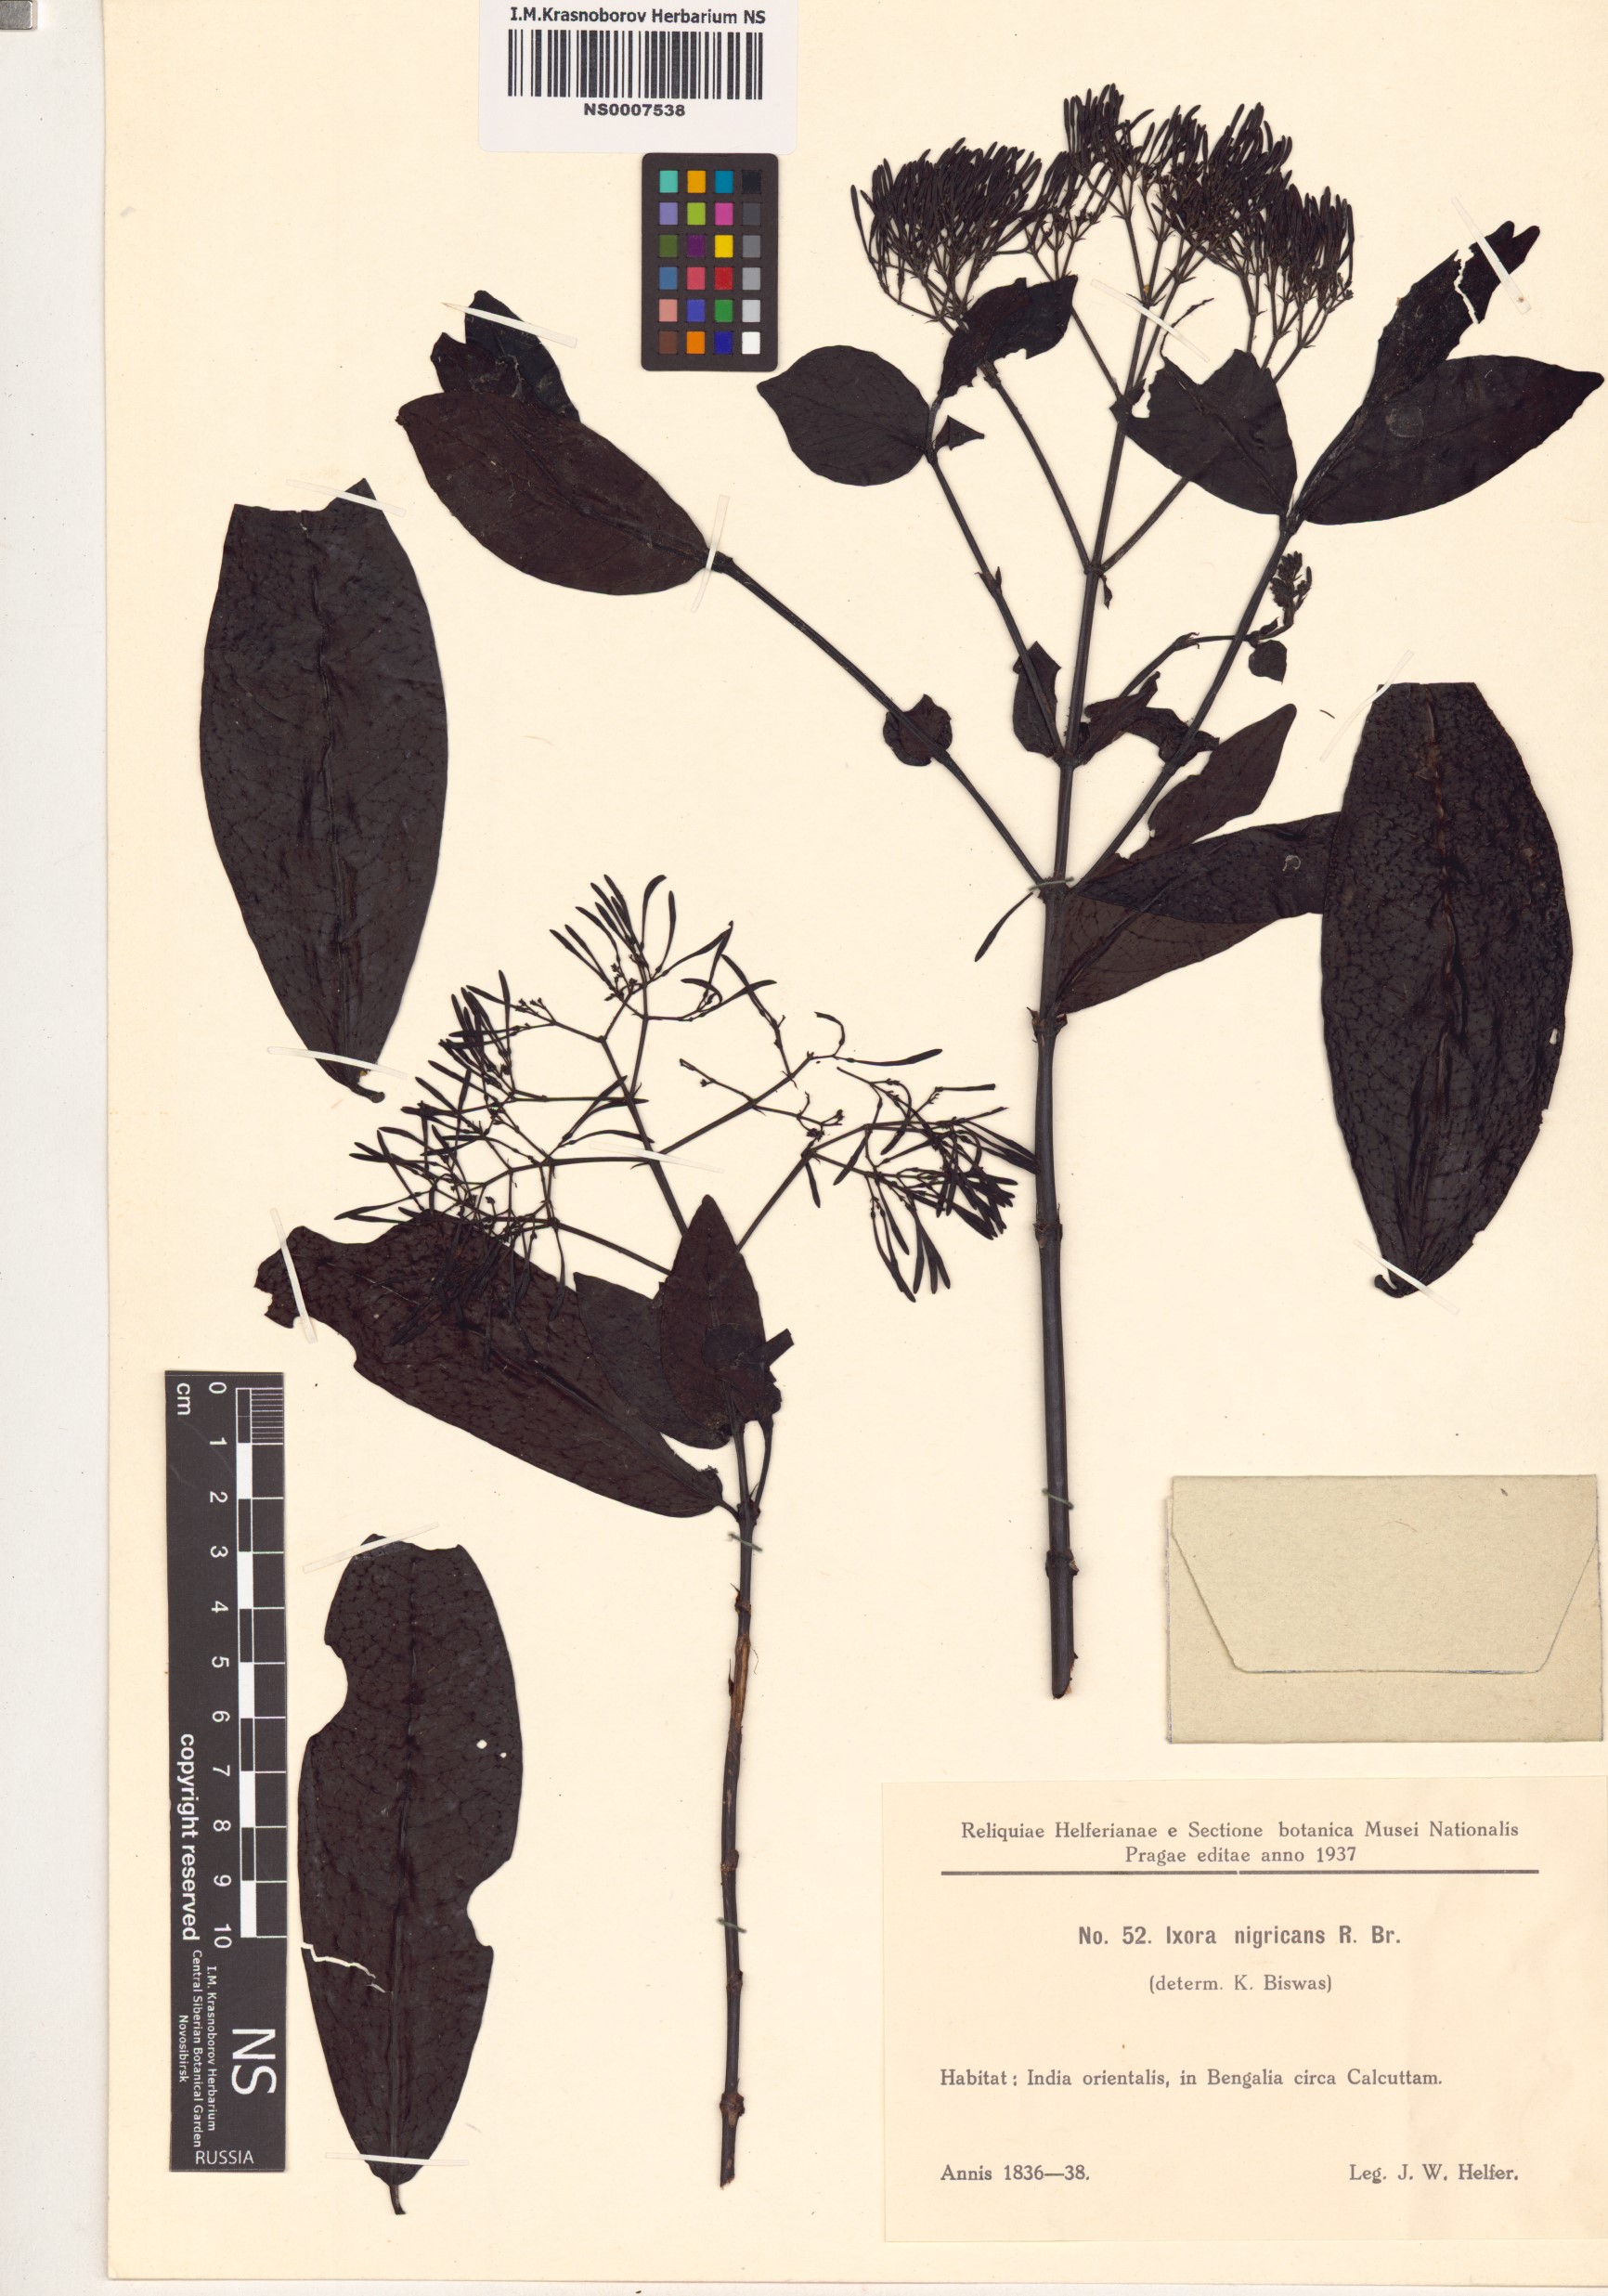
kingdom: Plantae
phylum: Tracheophyta
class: Magnoliopsida
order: Gentianales
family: Rubiaceae
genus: Ixora
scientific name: Ixora nigricans
